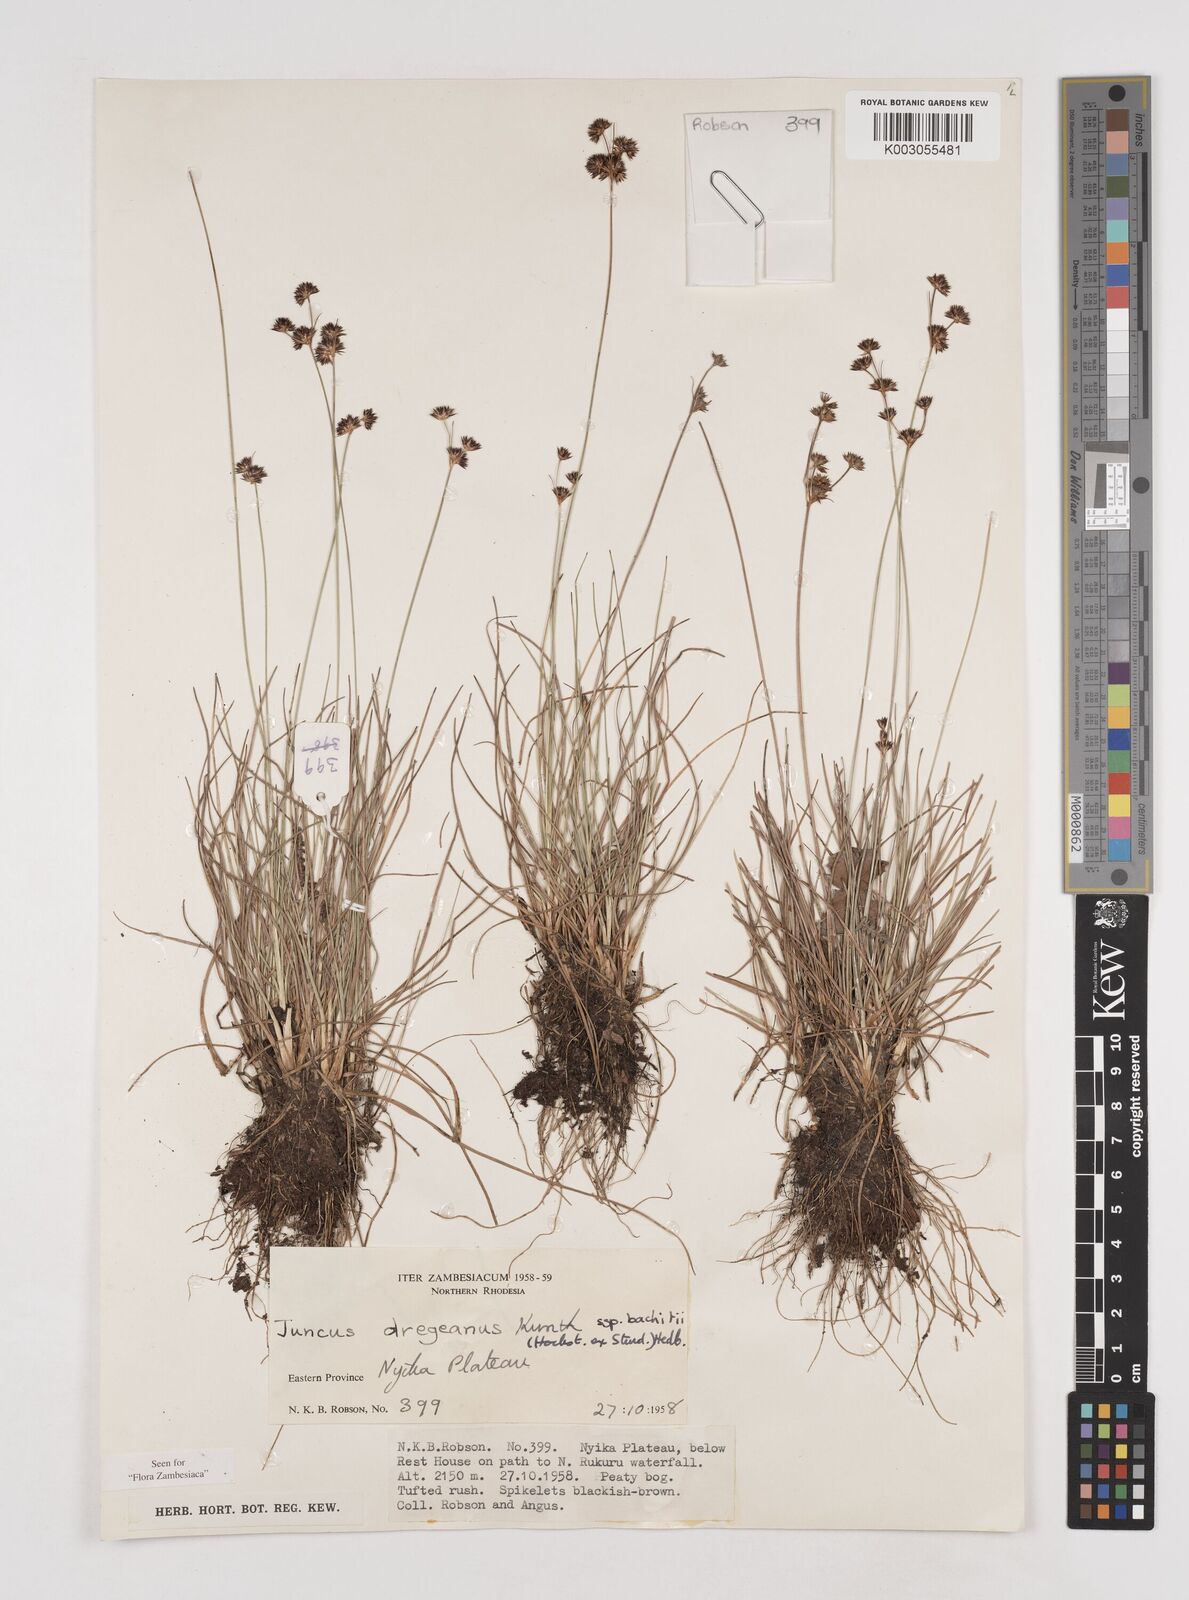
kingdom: Plantae
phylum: Tracheophyta
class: Liliopsida
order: Poales
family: Juncaceae
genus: Juncus
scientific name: Juncus dregeanus
